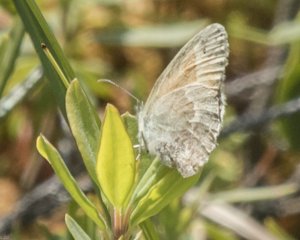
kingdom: Animalia
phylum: Arthropoda
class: Insecta
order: Lepidoptera
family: Nymphalidae
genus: Coenonympha
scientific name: Coenonympha tullia
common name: Large Heath
